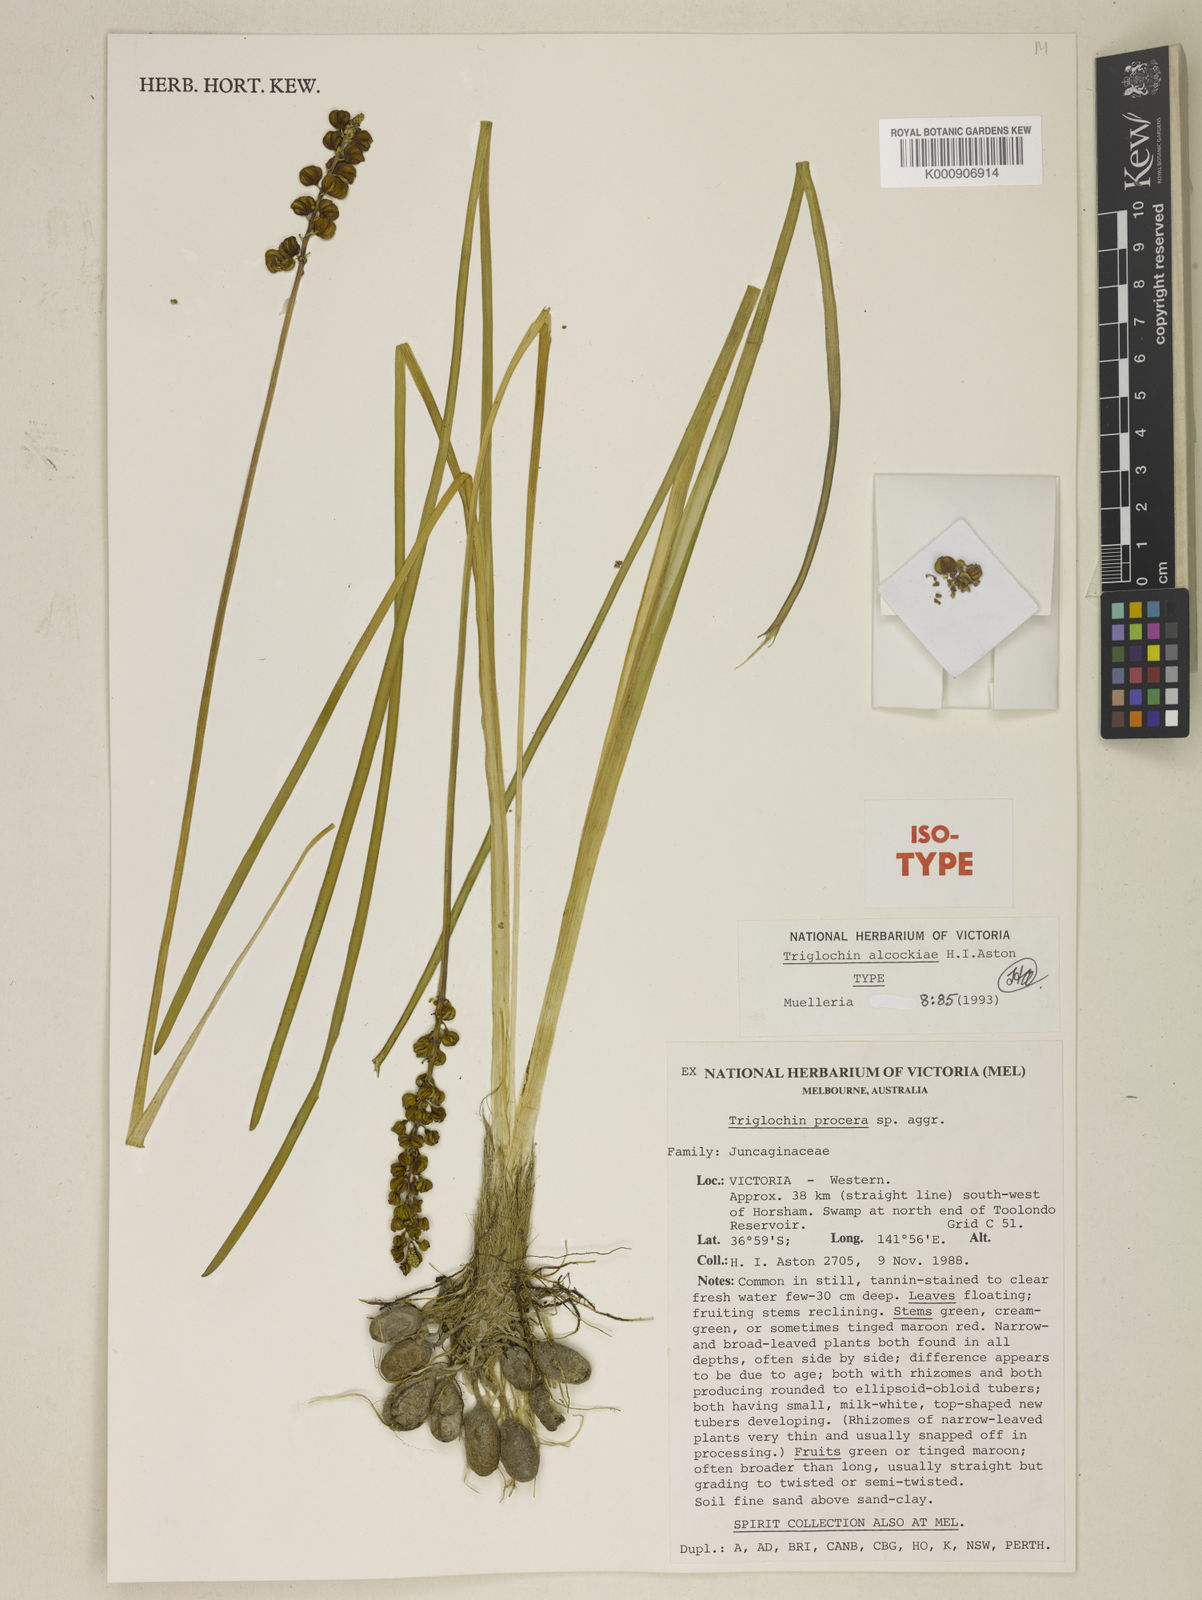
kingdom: Plantae
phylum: Tracheophyta
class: Liliopsida
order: Alismatales
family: Juncaginaceae
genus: Cycnogeton
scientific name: Cycnogeton alcockiae
